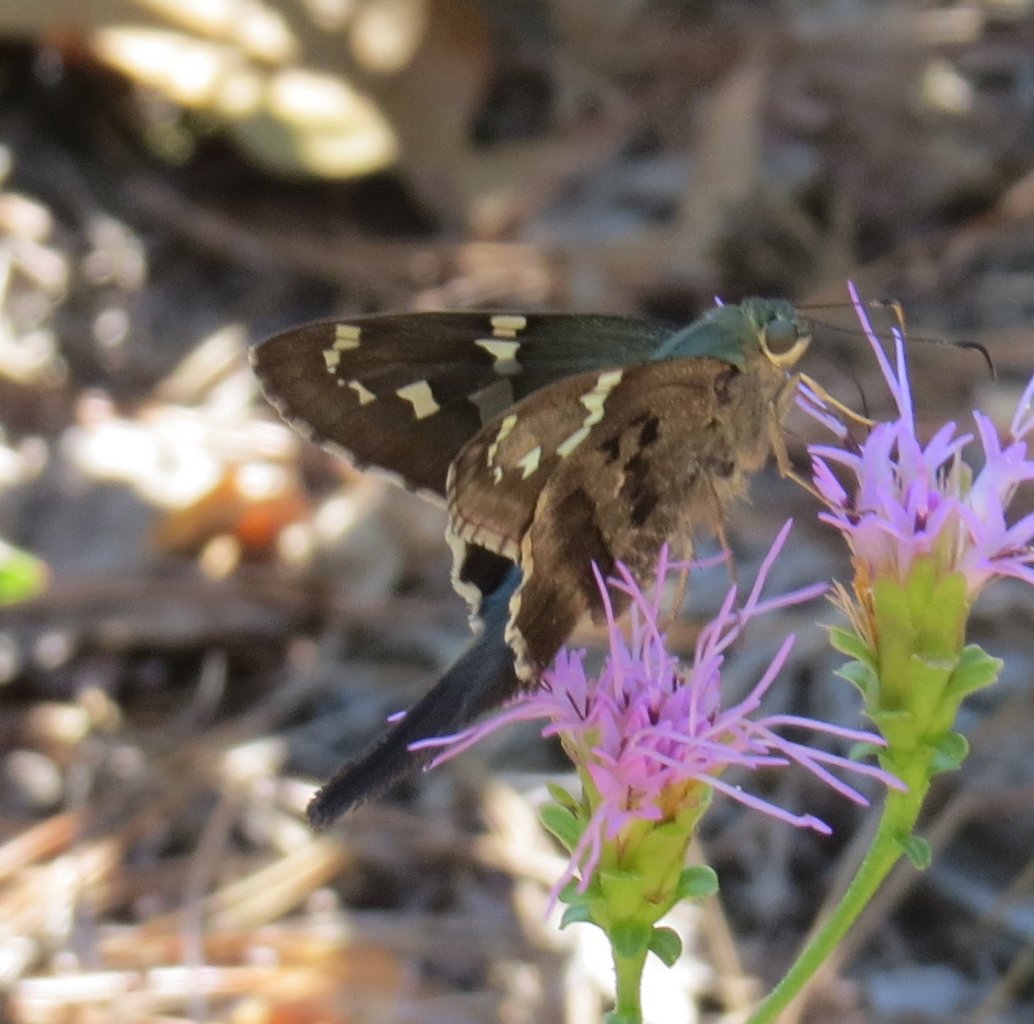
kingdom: Animalia
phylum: Arthropoda
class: Insecta
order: Lepidoptera
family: Hesperiidae
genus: Lerema
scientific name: Lerema accius
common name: Clouded Skipper
